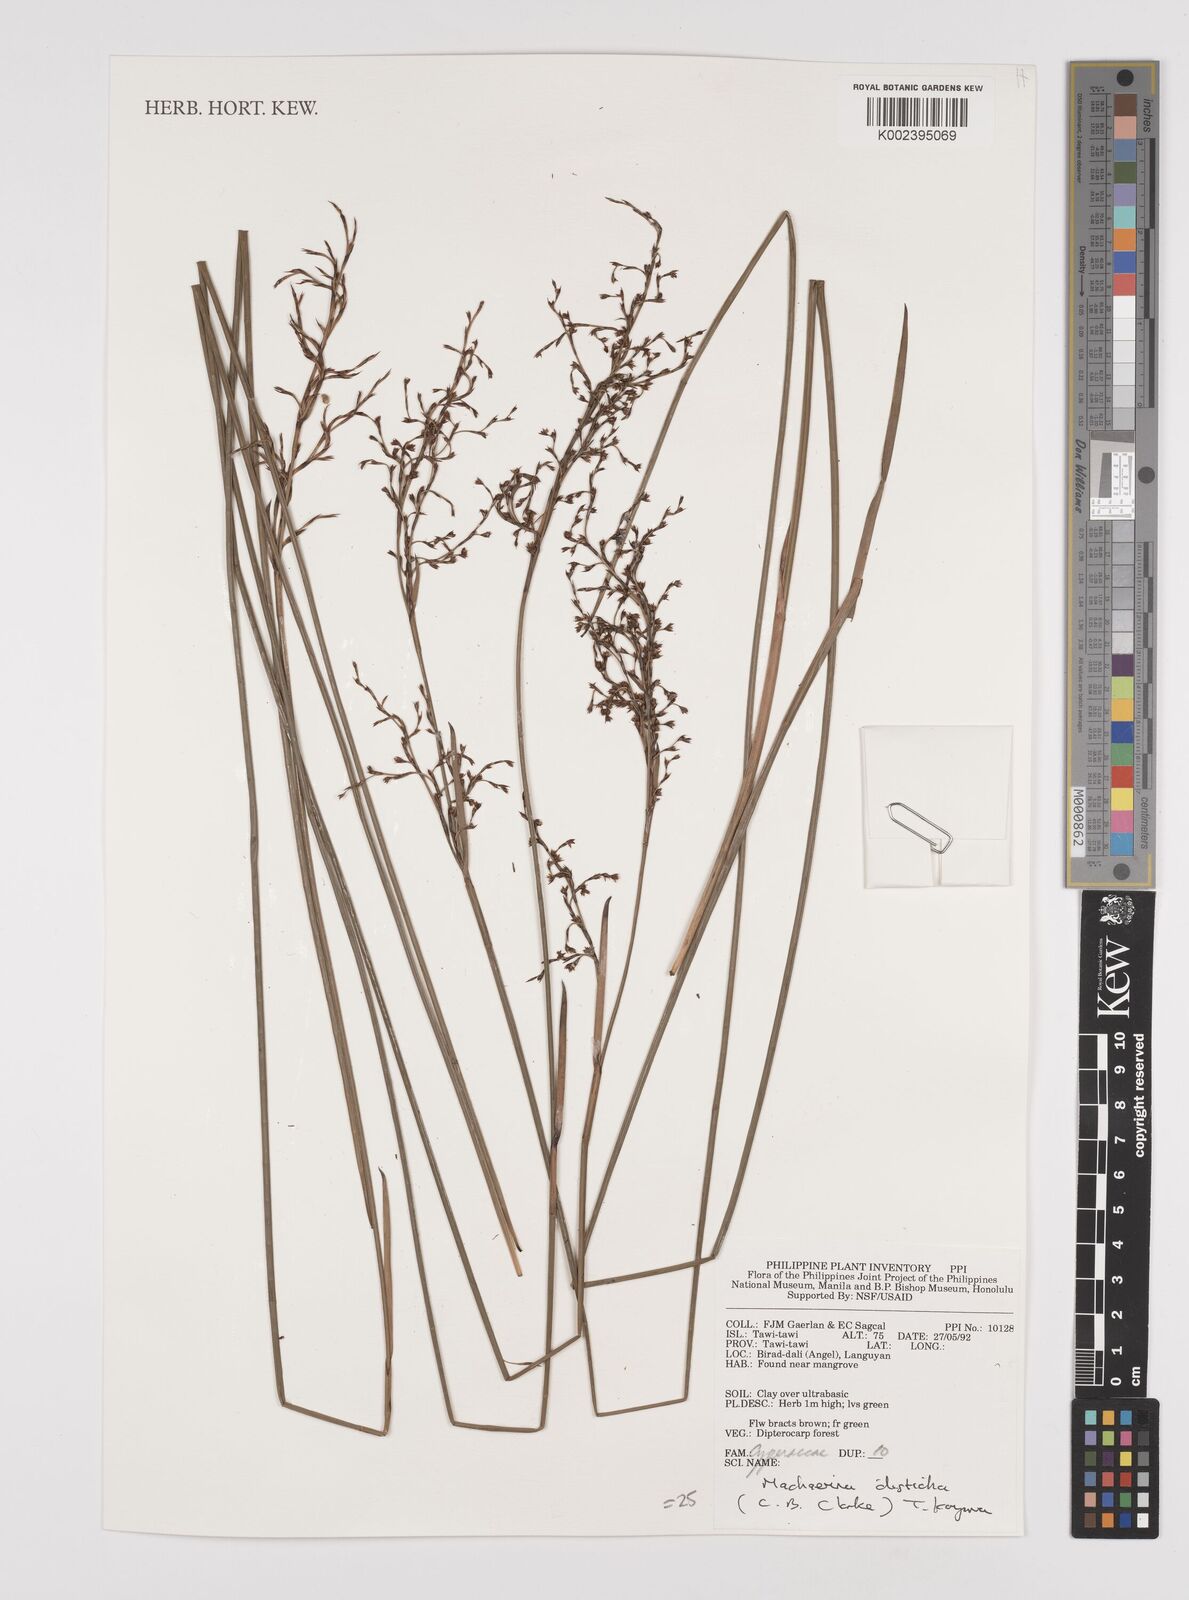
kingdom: Plantae
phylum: Tracheophyta
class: Liliopsida
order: Poales
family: Cyperaceae
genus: Machaerina
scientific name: Machaerina disticha
